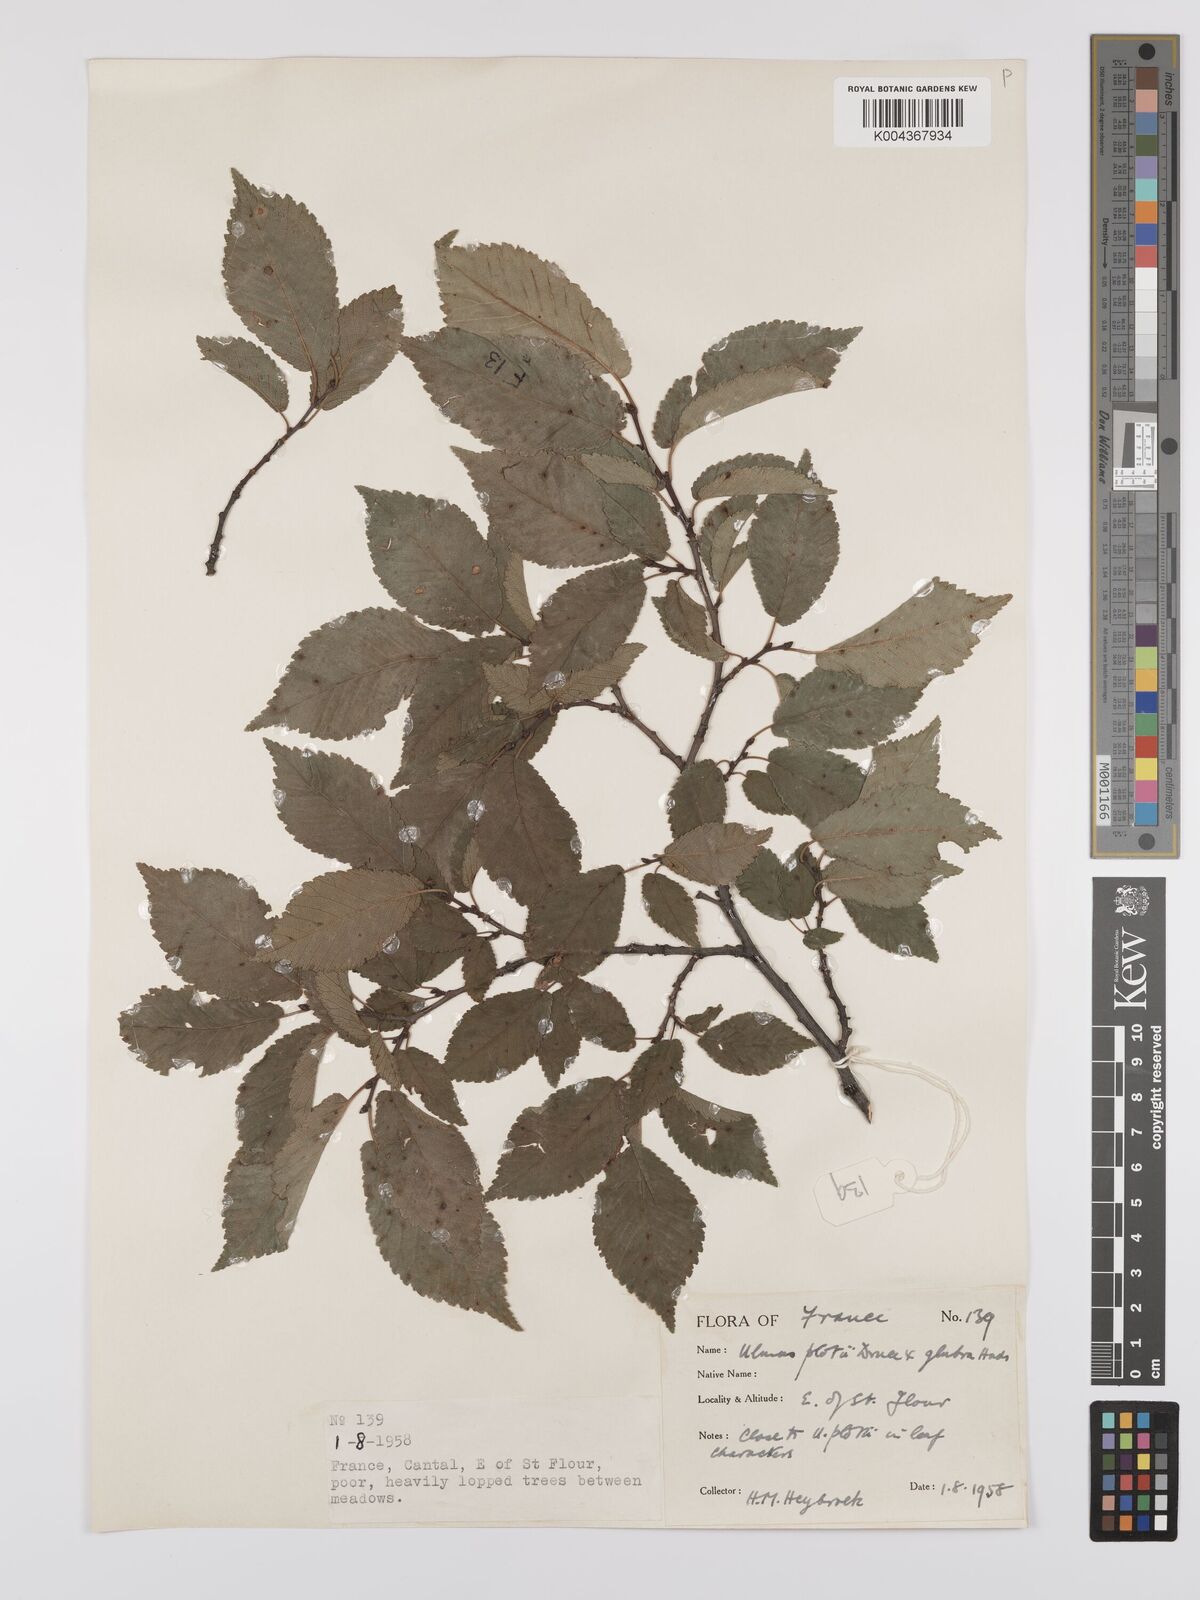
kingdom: Plantae
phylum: Tracheophyta
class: Magnoliopsida
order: Rosales
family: Ulmaceae
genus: Ulmus
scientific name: Ulmus minor
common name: Small-leaved elm
